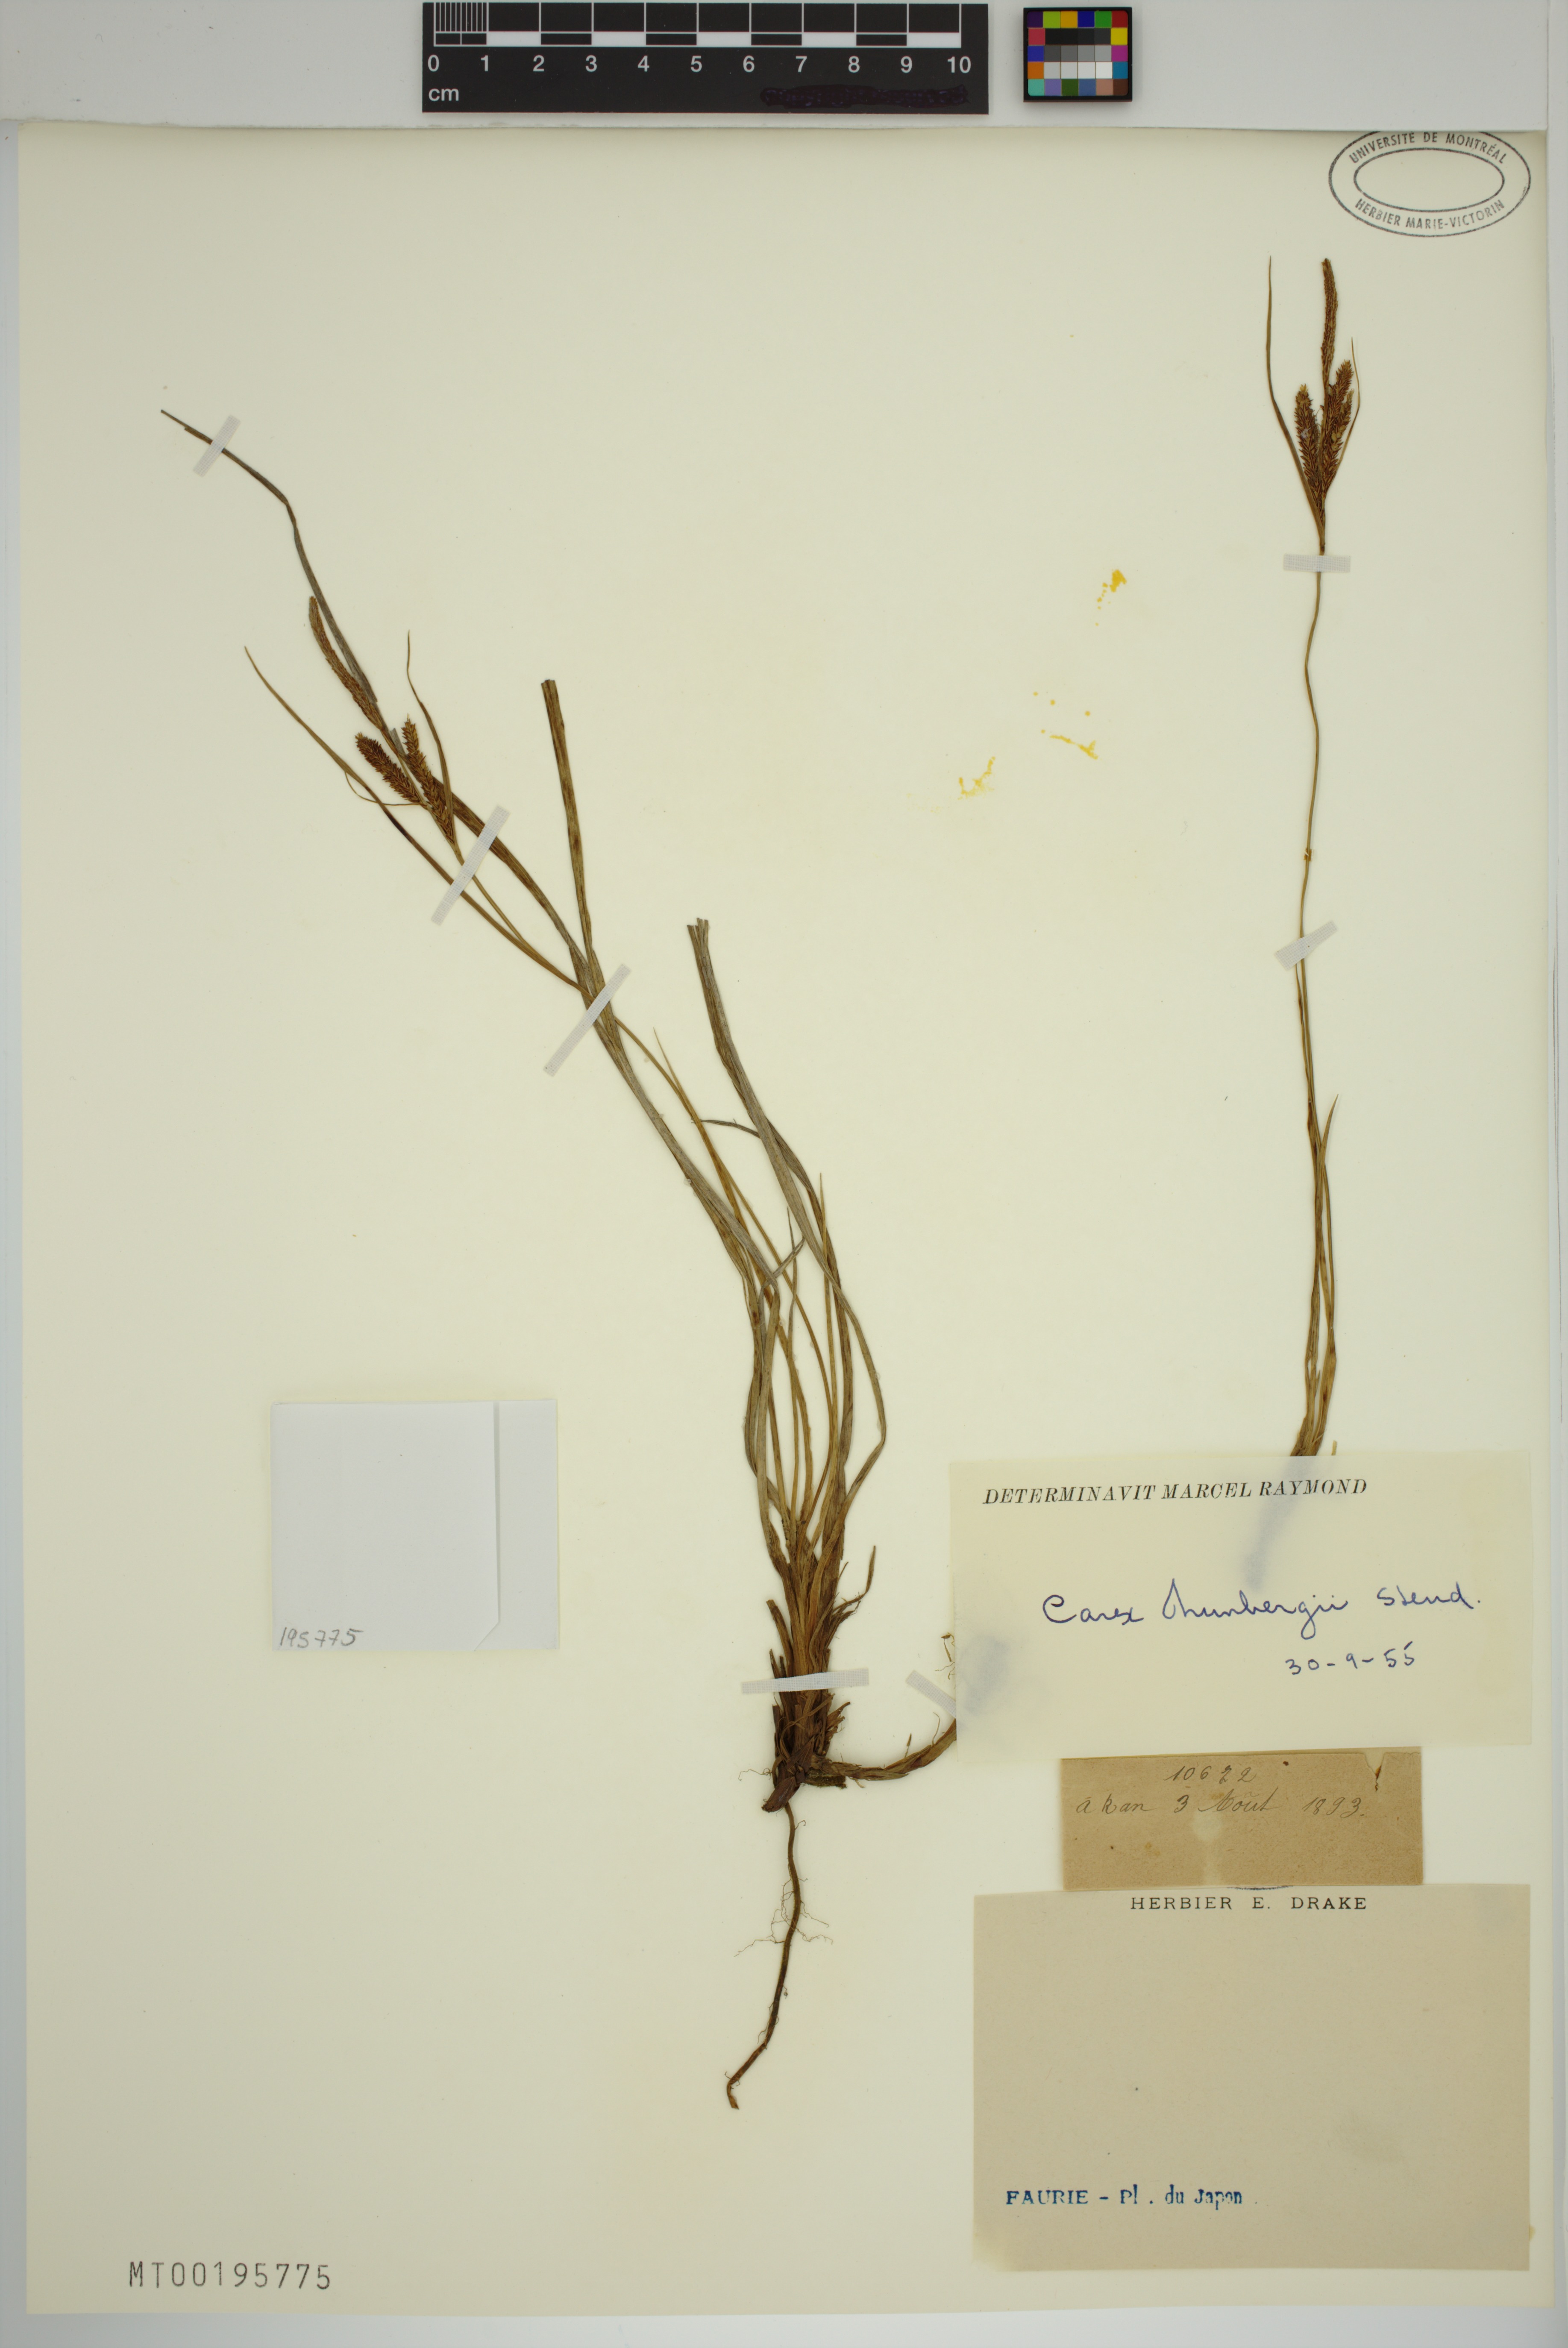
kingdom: Plantae
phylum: Tracheophyta
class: Liliopsida
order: Poales
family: Cyperaceae
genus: Carex
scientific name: Carex thunbergii
